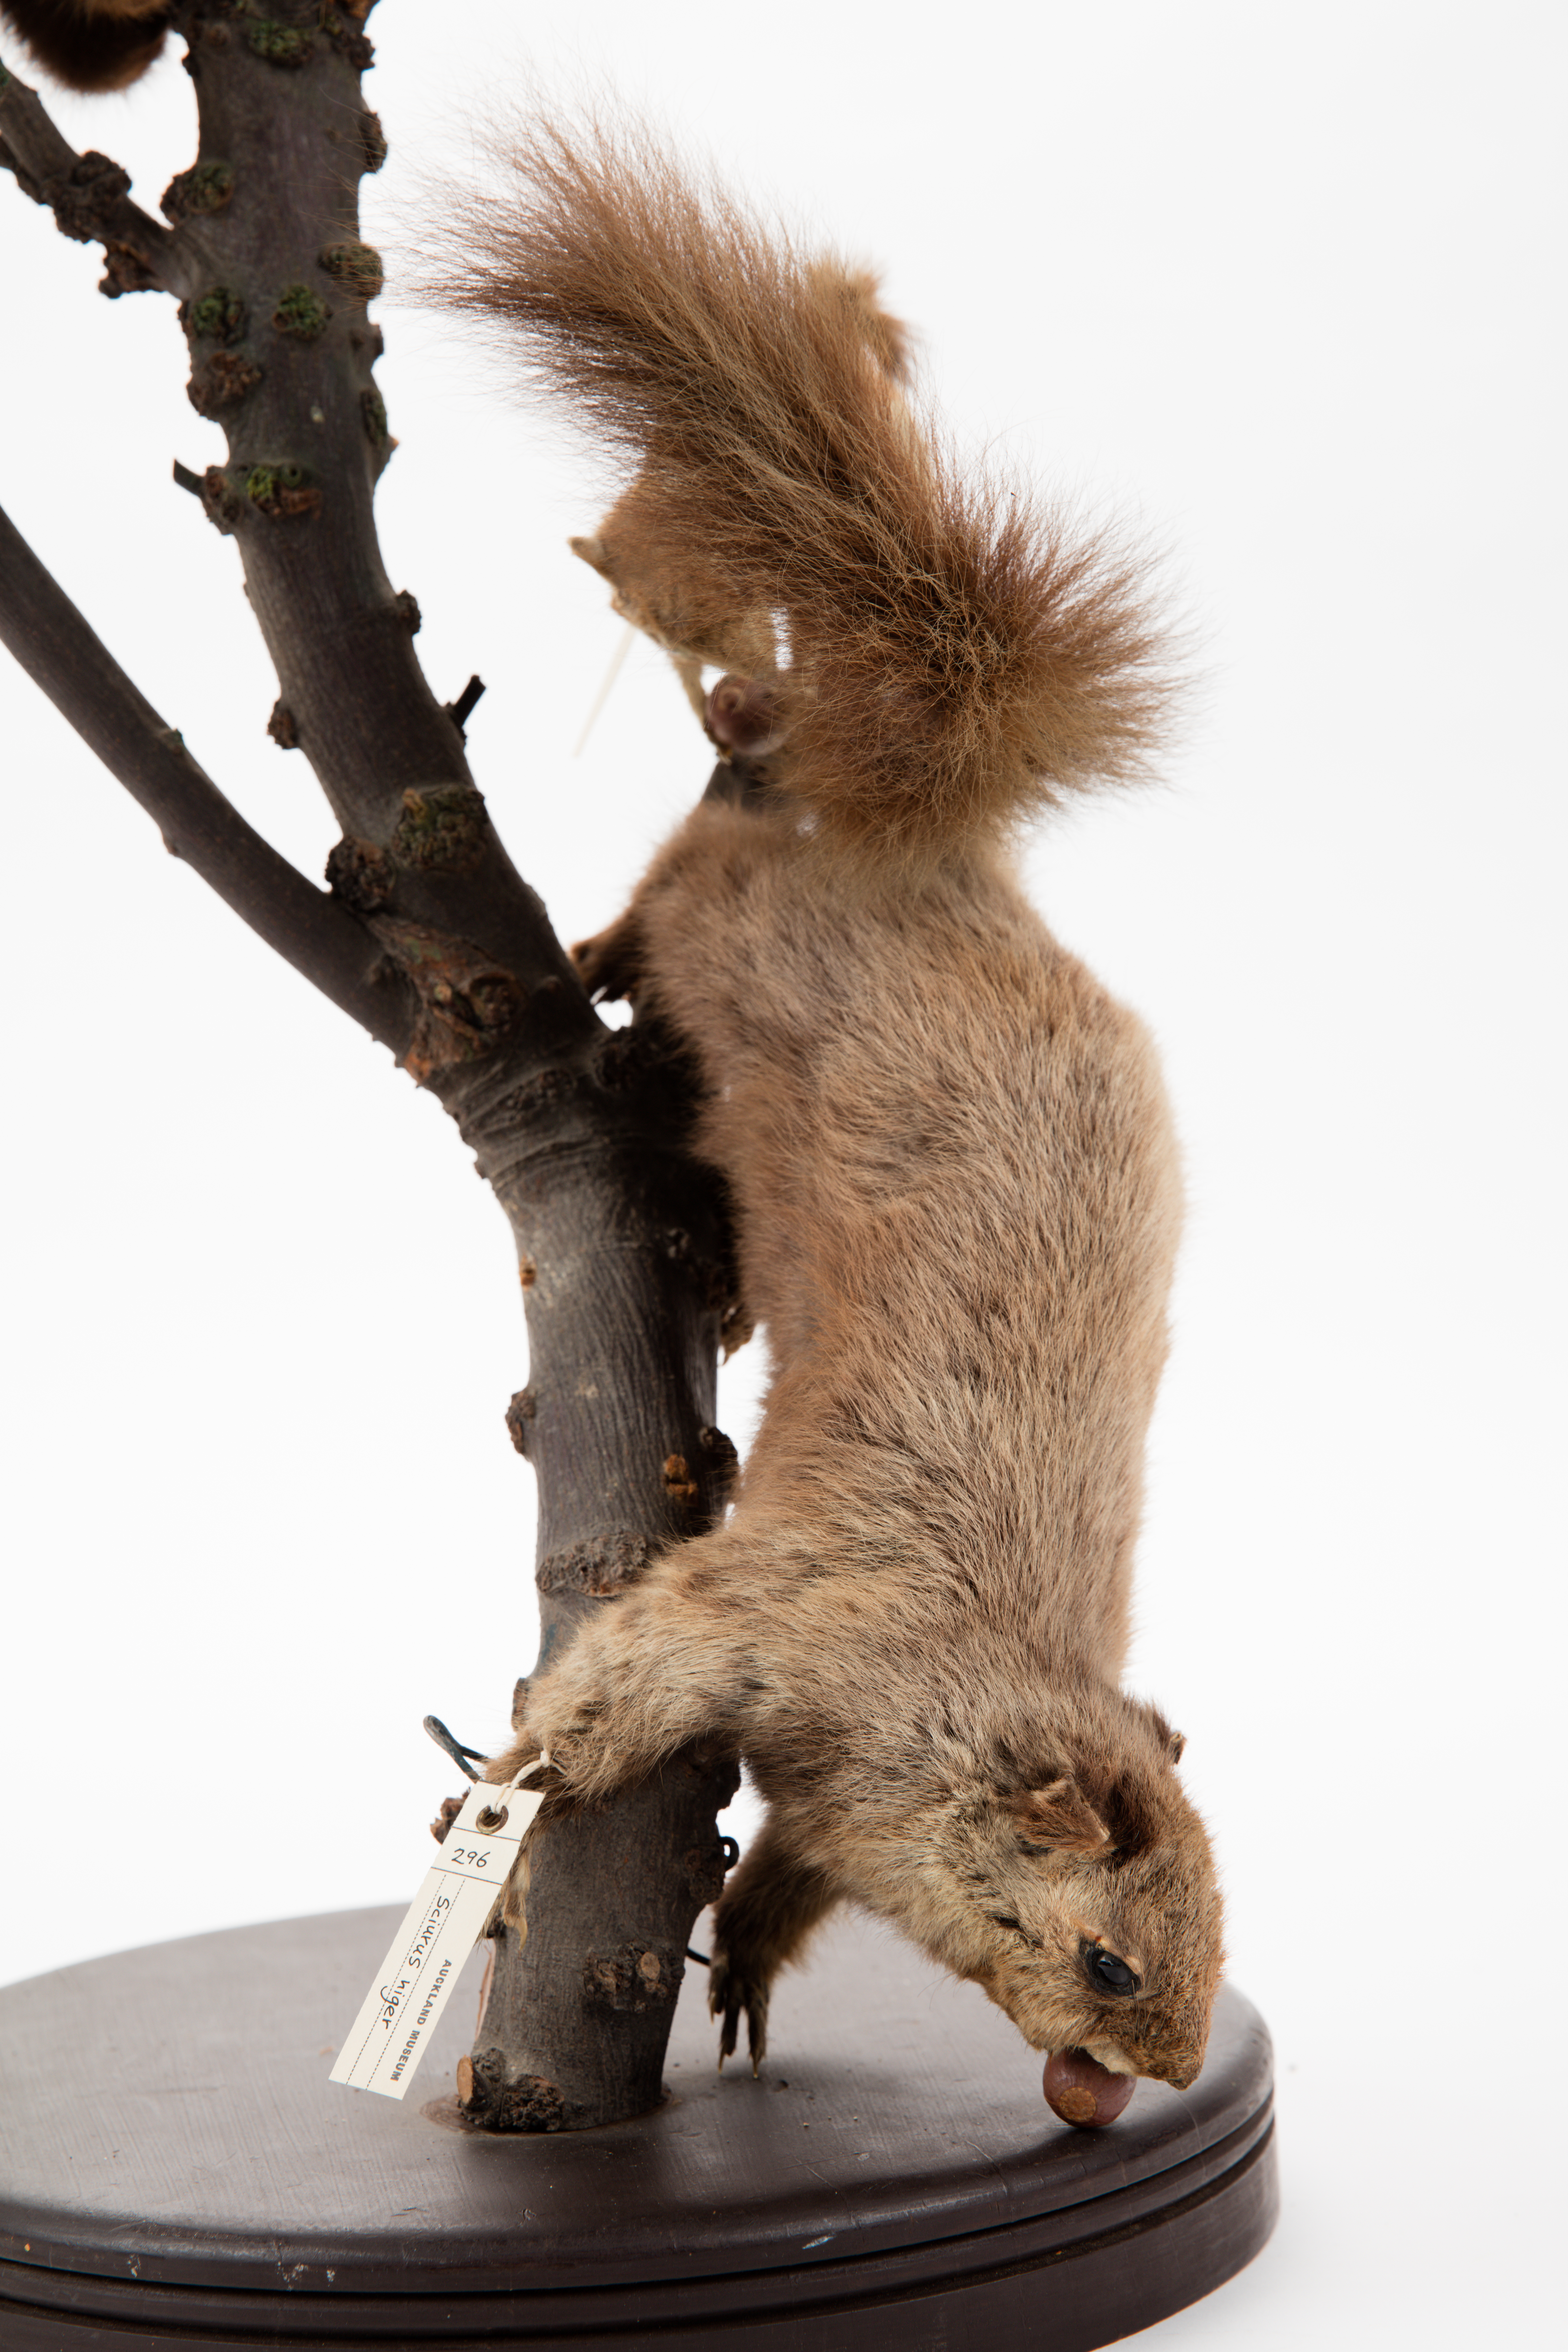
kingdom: Animalia
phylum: Chordata
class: Mammalia
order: Rodentia
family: Sciuridae
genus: Sciurus
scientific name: Sciurus niger
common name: Fox squirrel
